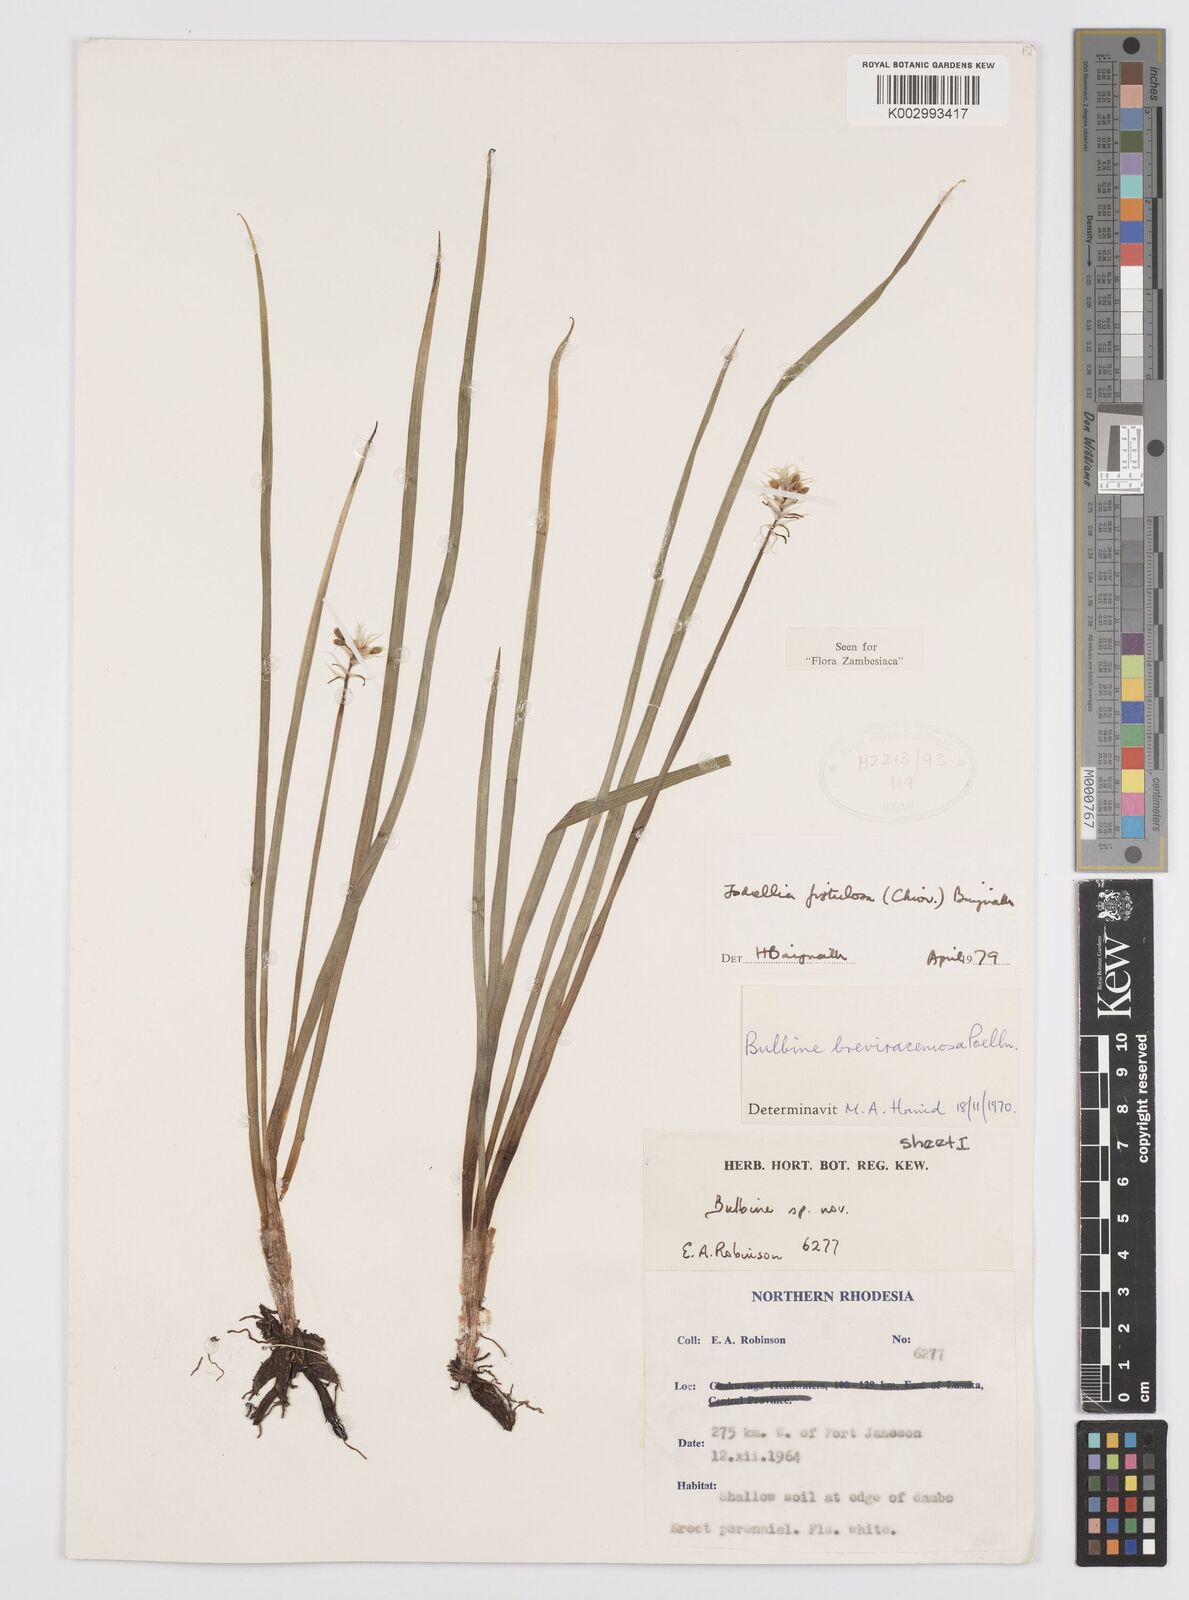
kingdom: Plantae
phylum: Tracheophyta
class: Liliopsida
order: Asparagales
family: Asphodelaceae
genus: Bulbine
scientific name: Bulbine fistulosa
